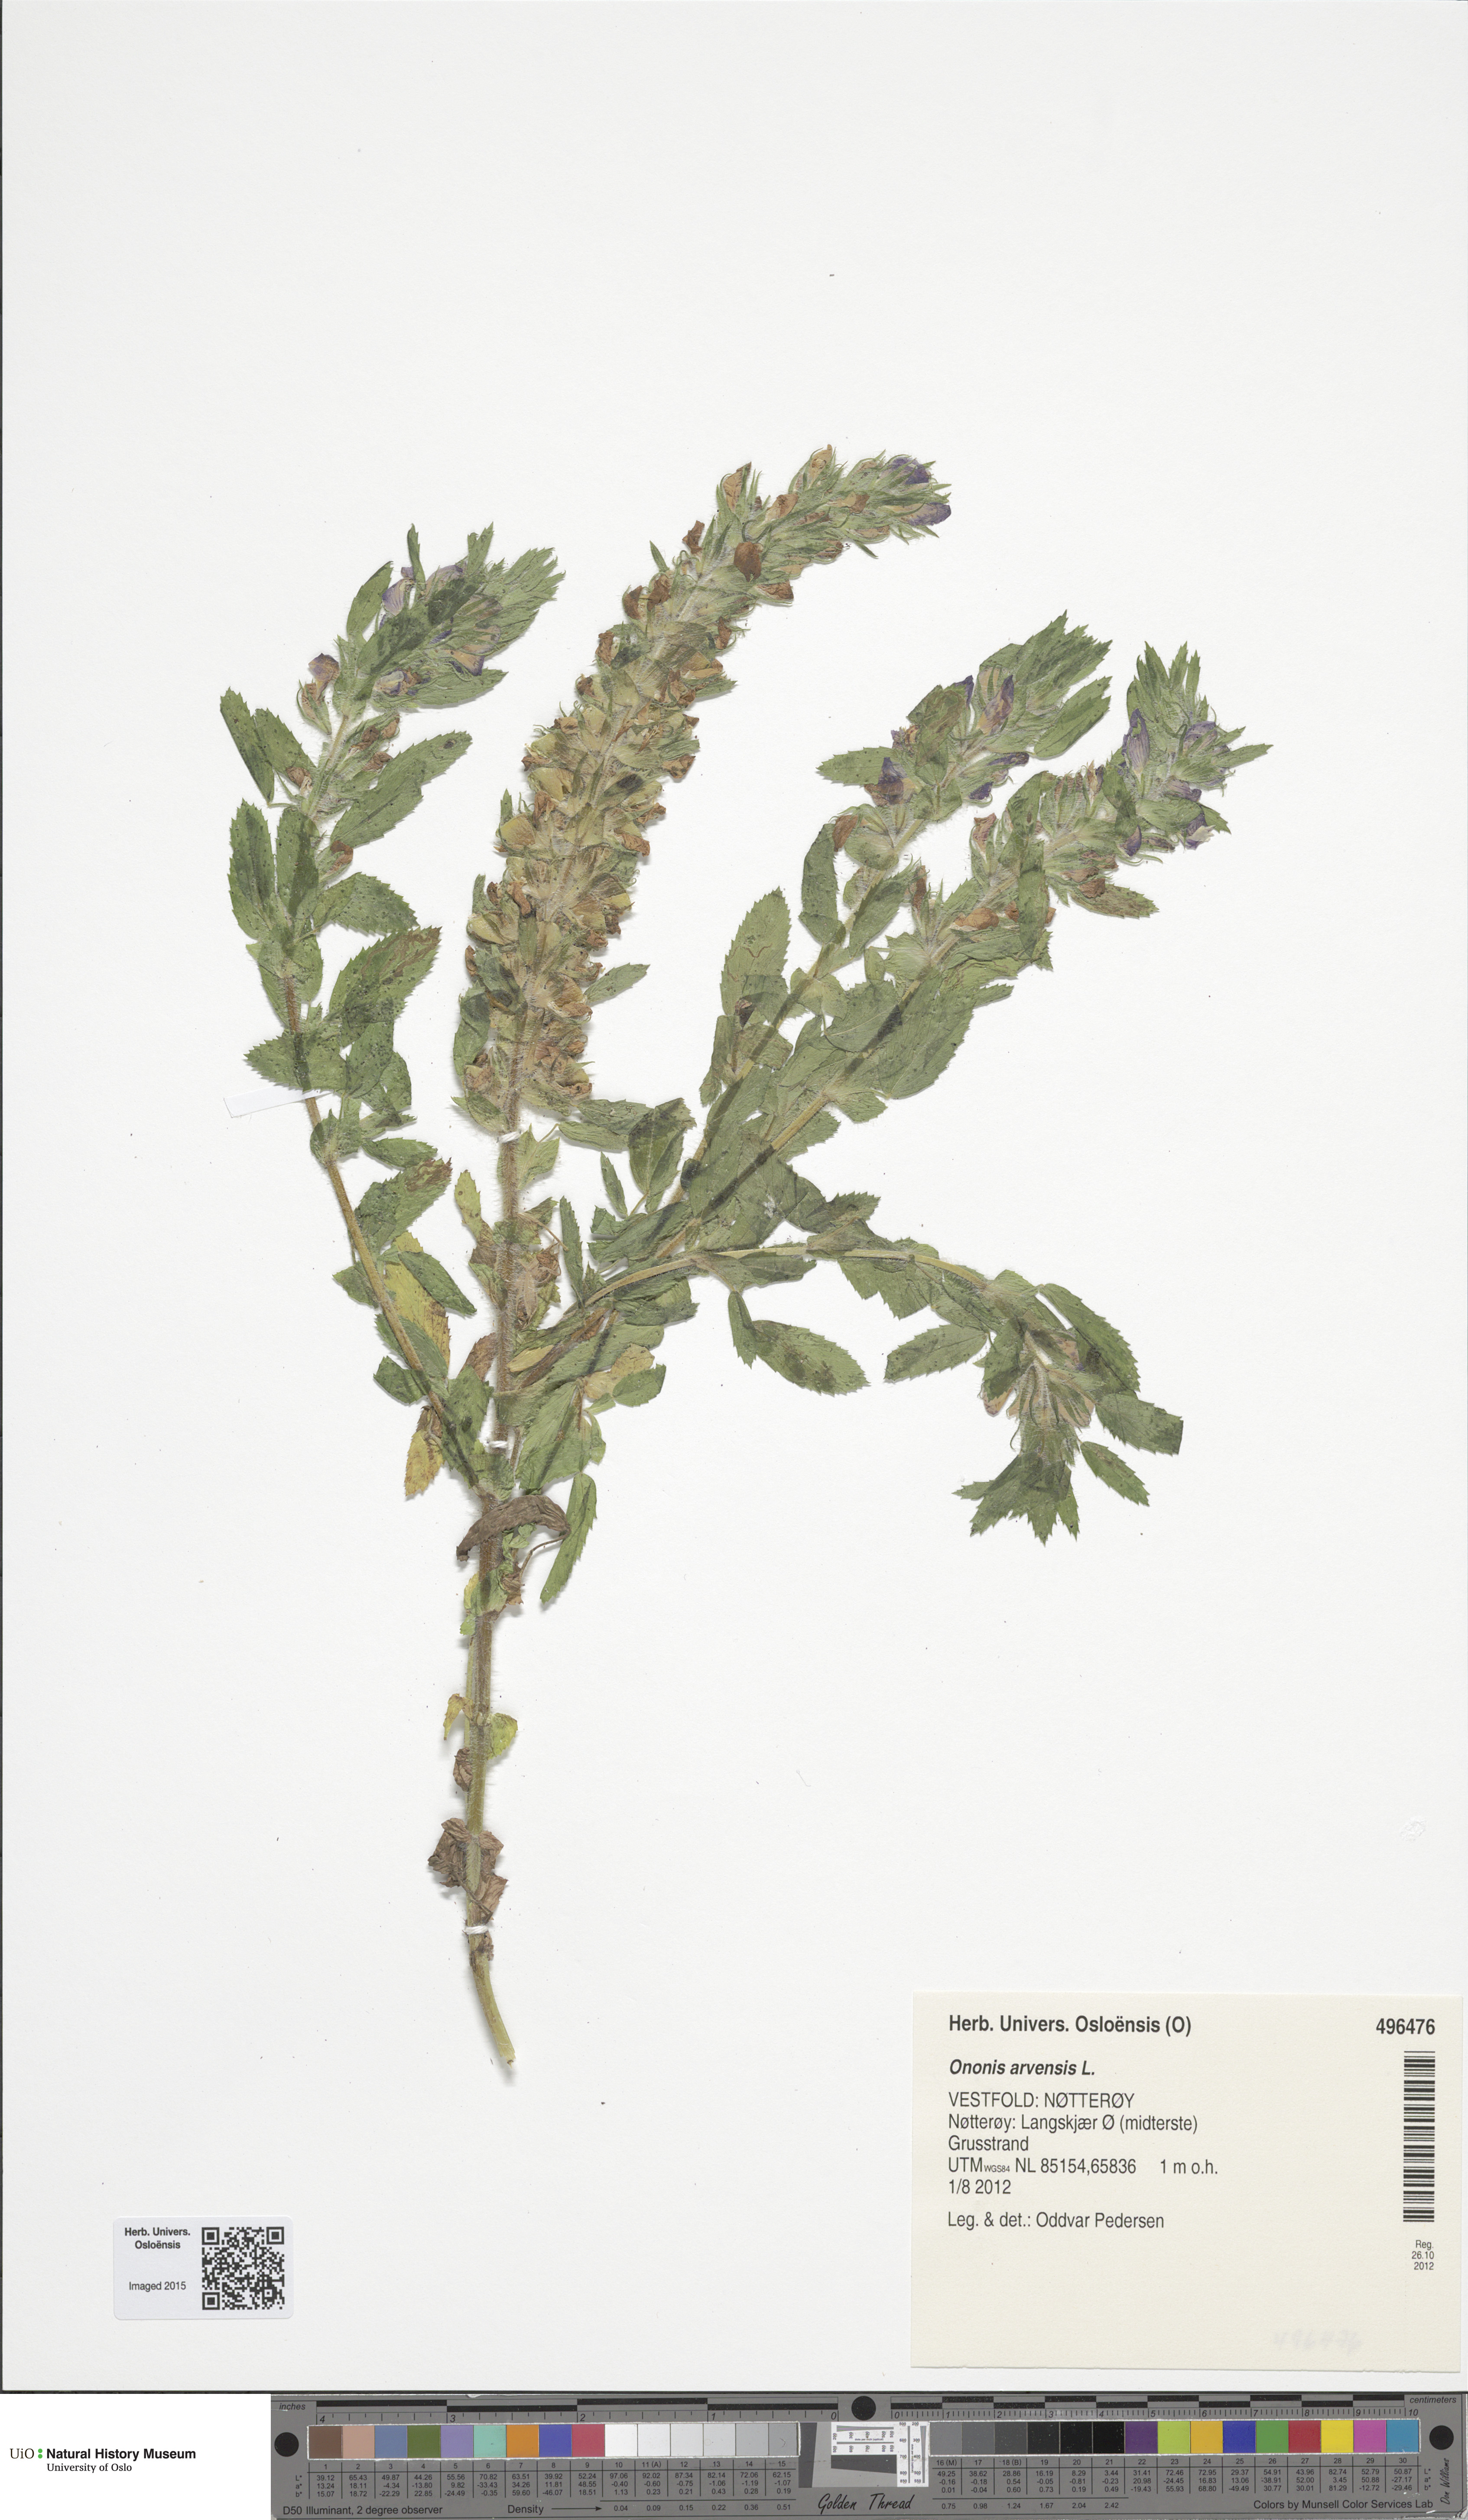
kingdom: Plantae
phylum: Tracheophyta
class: Magnoliopsida
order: Fabales
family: Fabaceae
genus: Ononis
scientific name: Ononis arvensis
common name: Field restharrow
